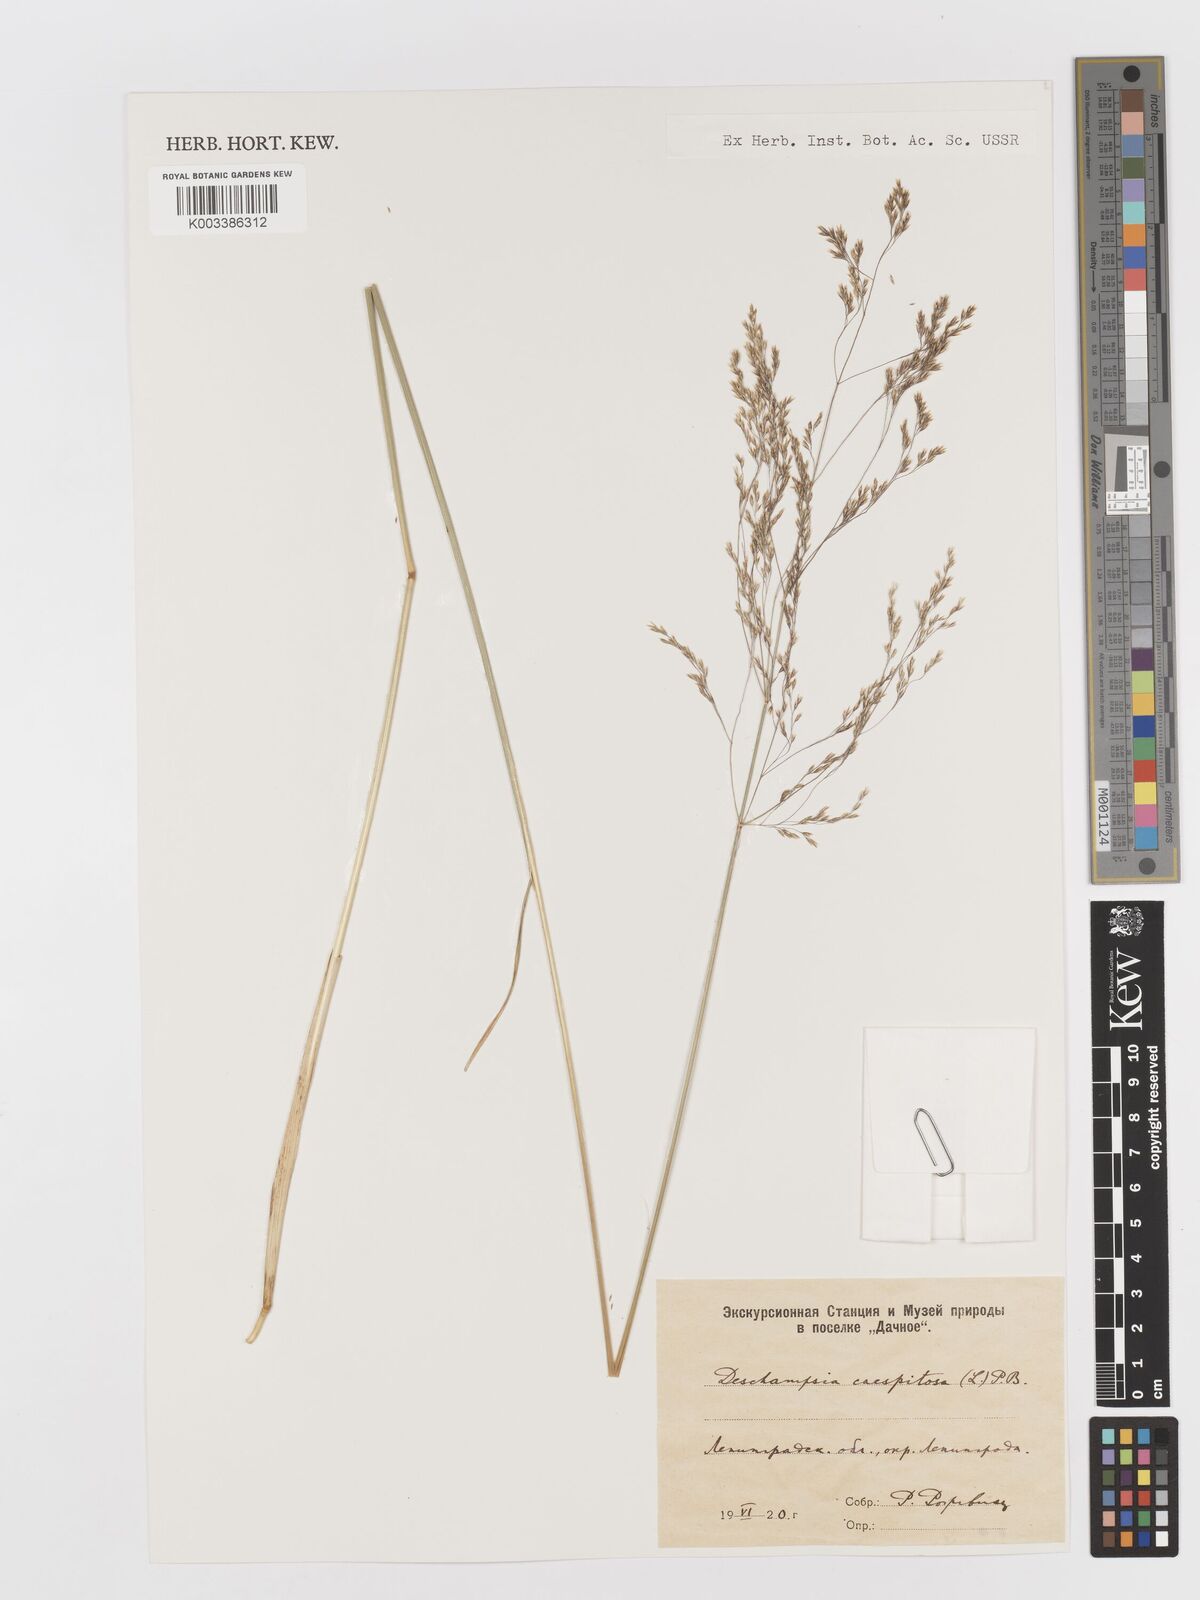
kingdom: Plantae
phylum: Tracheophyta
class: Liliopsida
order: Poales
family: Poaceae
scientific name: Poaceae
